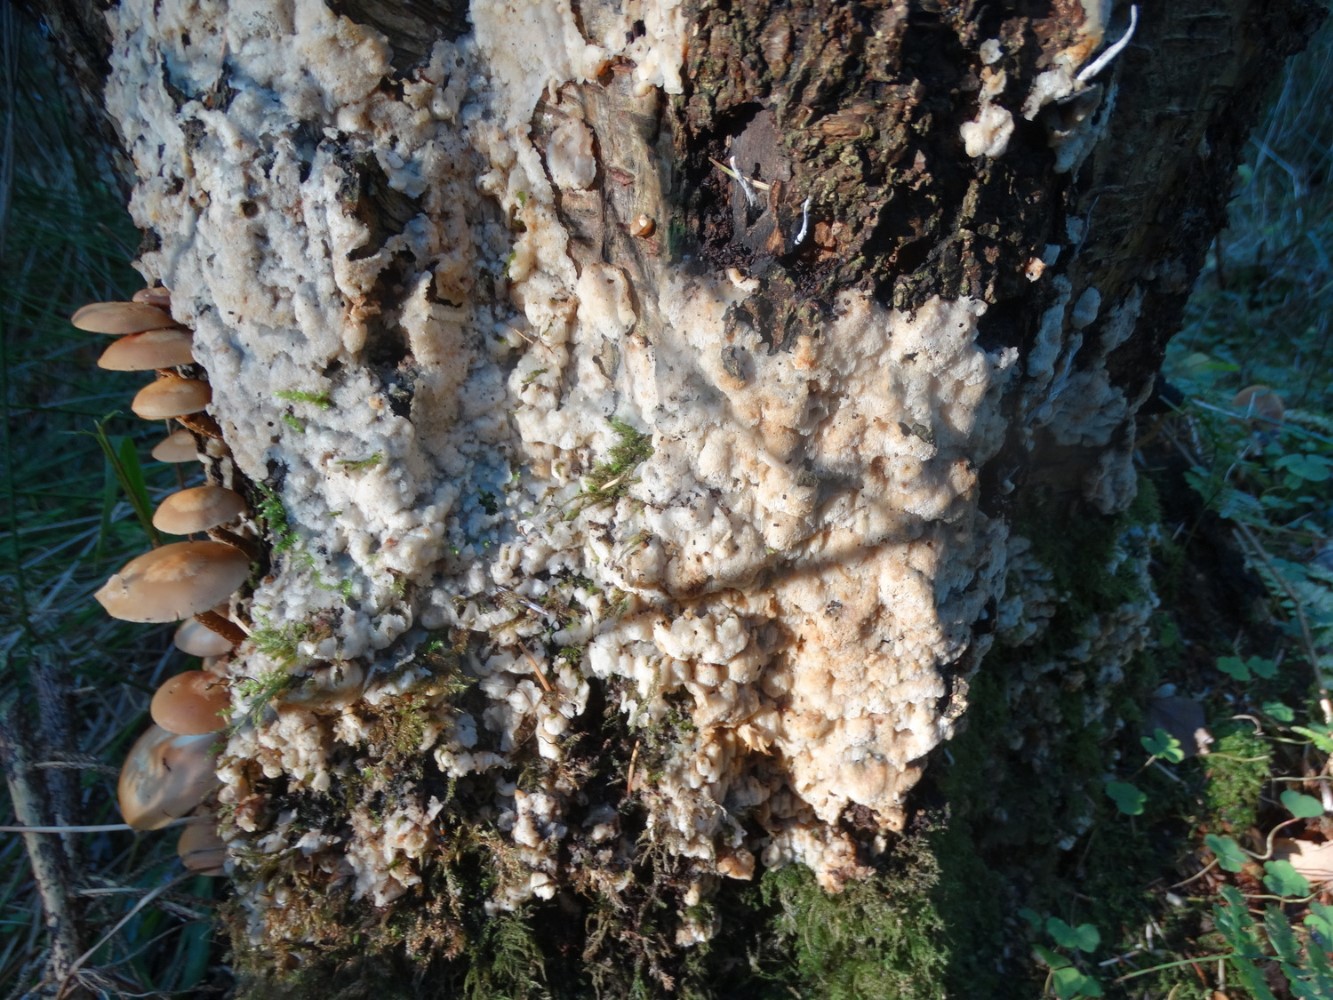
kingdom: Fungi
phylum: Basidiomycota
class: Agaricomycetes
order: Polyporales
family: Meruliaceae
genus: Physisporinus
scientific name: Physisporinus vitreus
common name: mastesvamp
